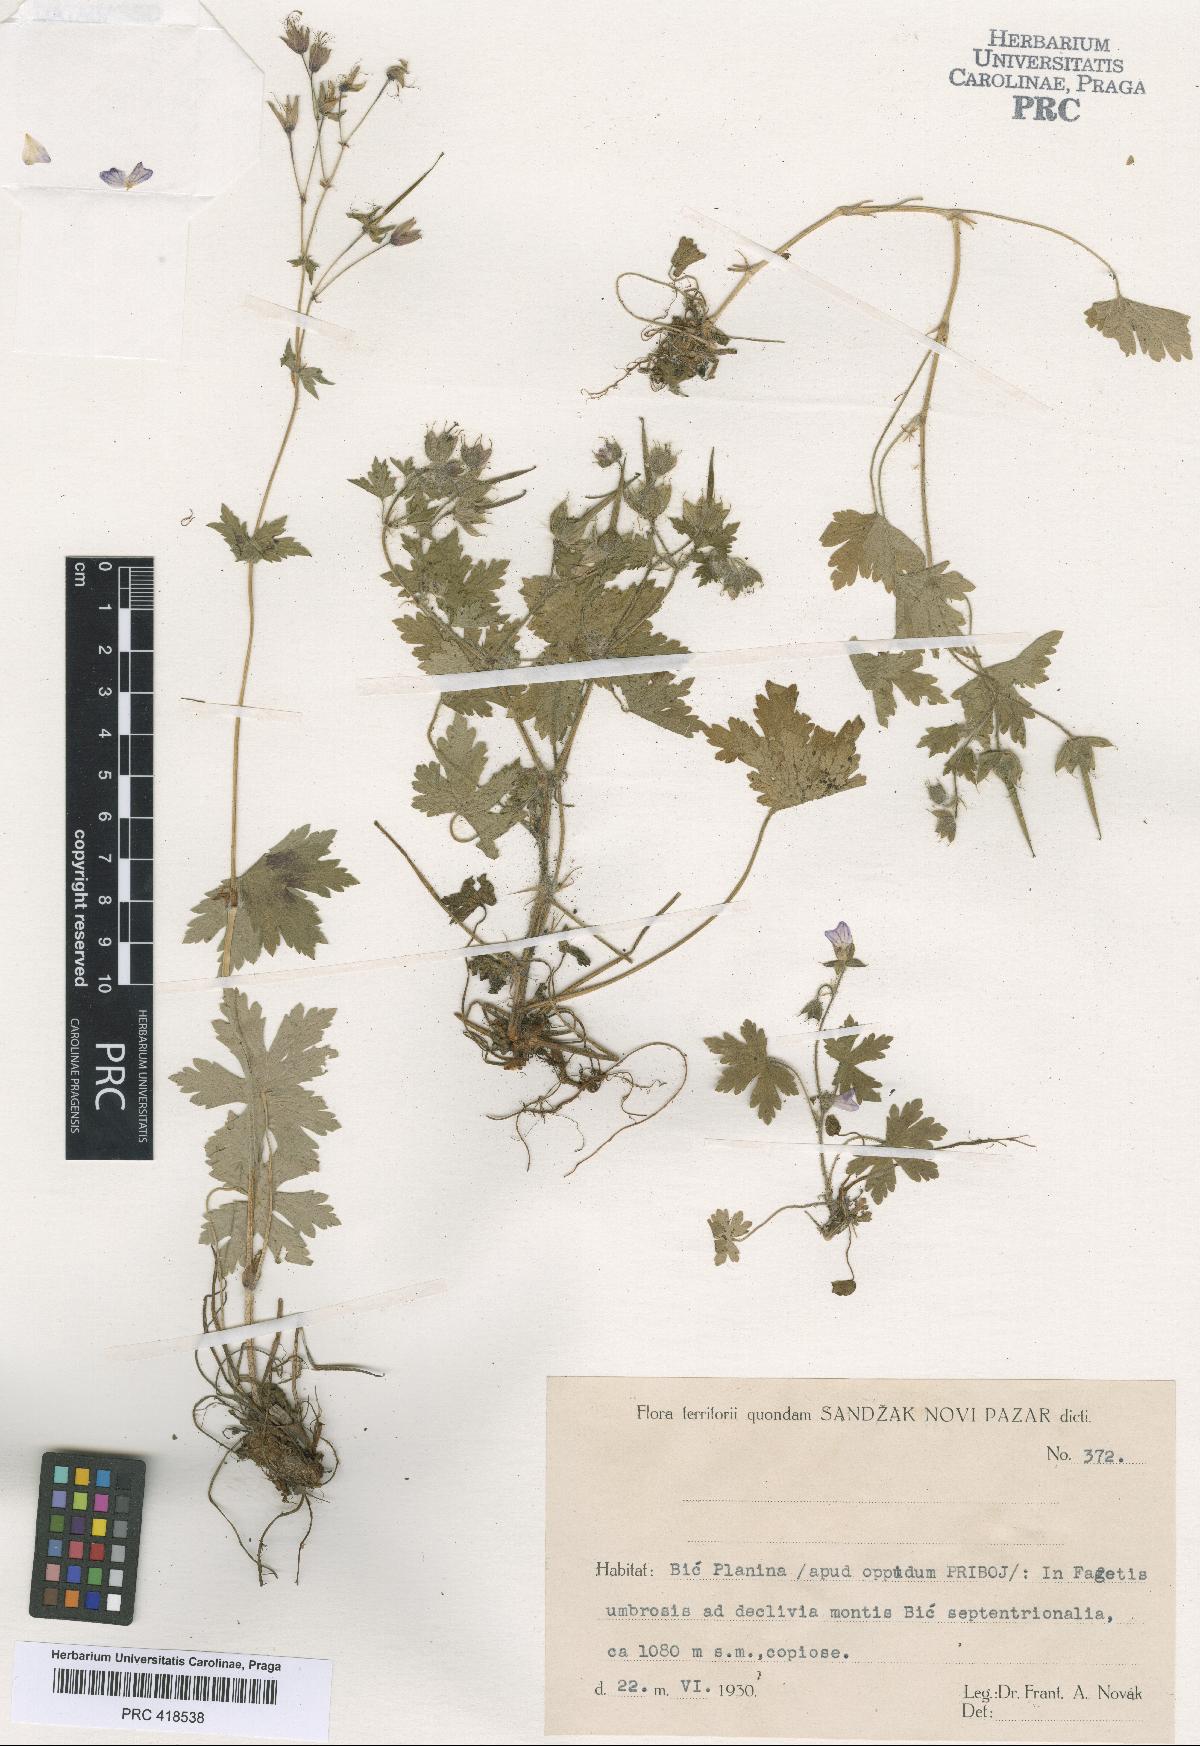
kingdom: Plantae
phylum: Tracheophyta
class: Magnoliopsida
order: Geraniales
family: Geraniaceae
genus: Geranium
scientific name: Geranium bohemicum
